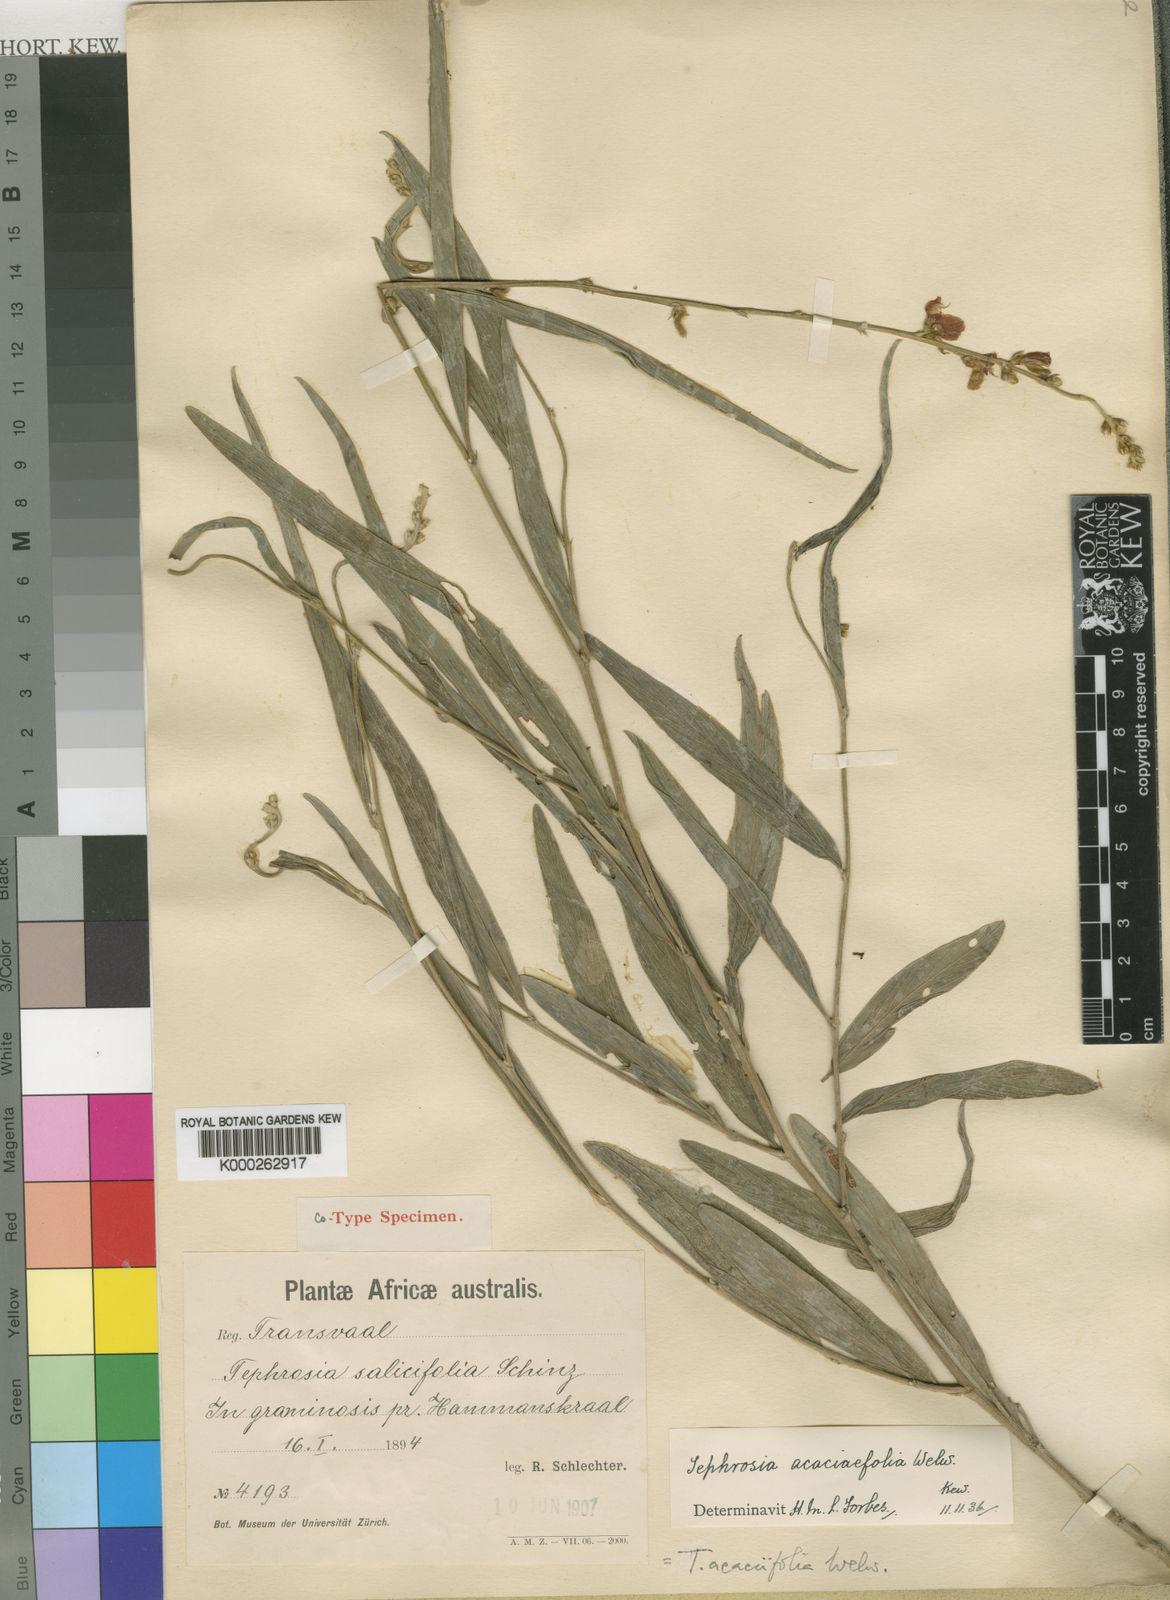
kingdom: Plantae
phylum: Tracheophyta
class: Magnoliopsida
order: Fabales
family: Fabaceae
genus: Tephrosia
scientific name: Tephrosia
